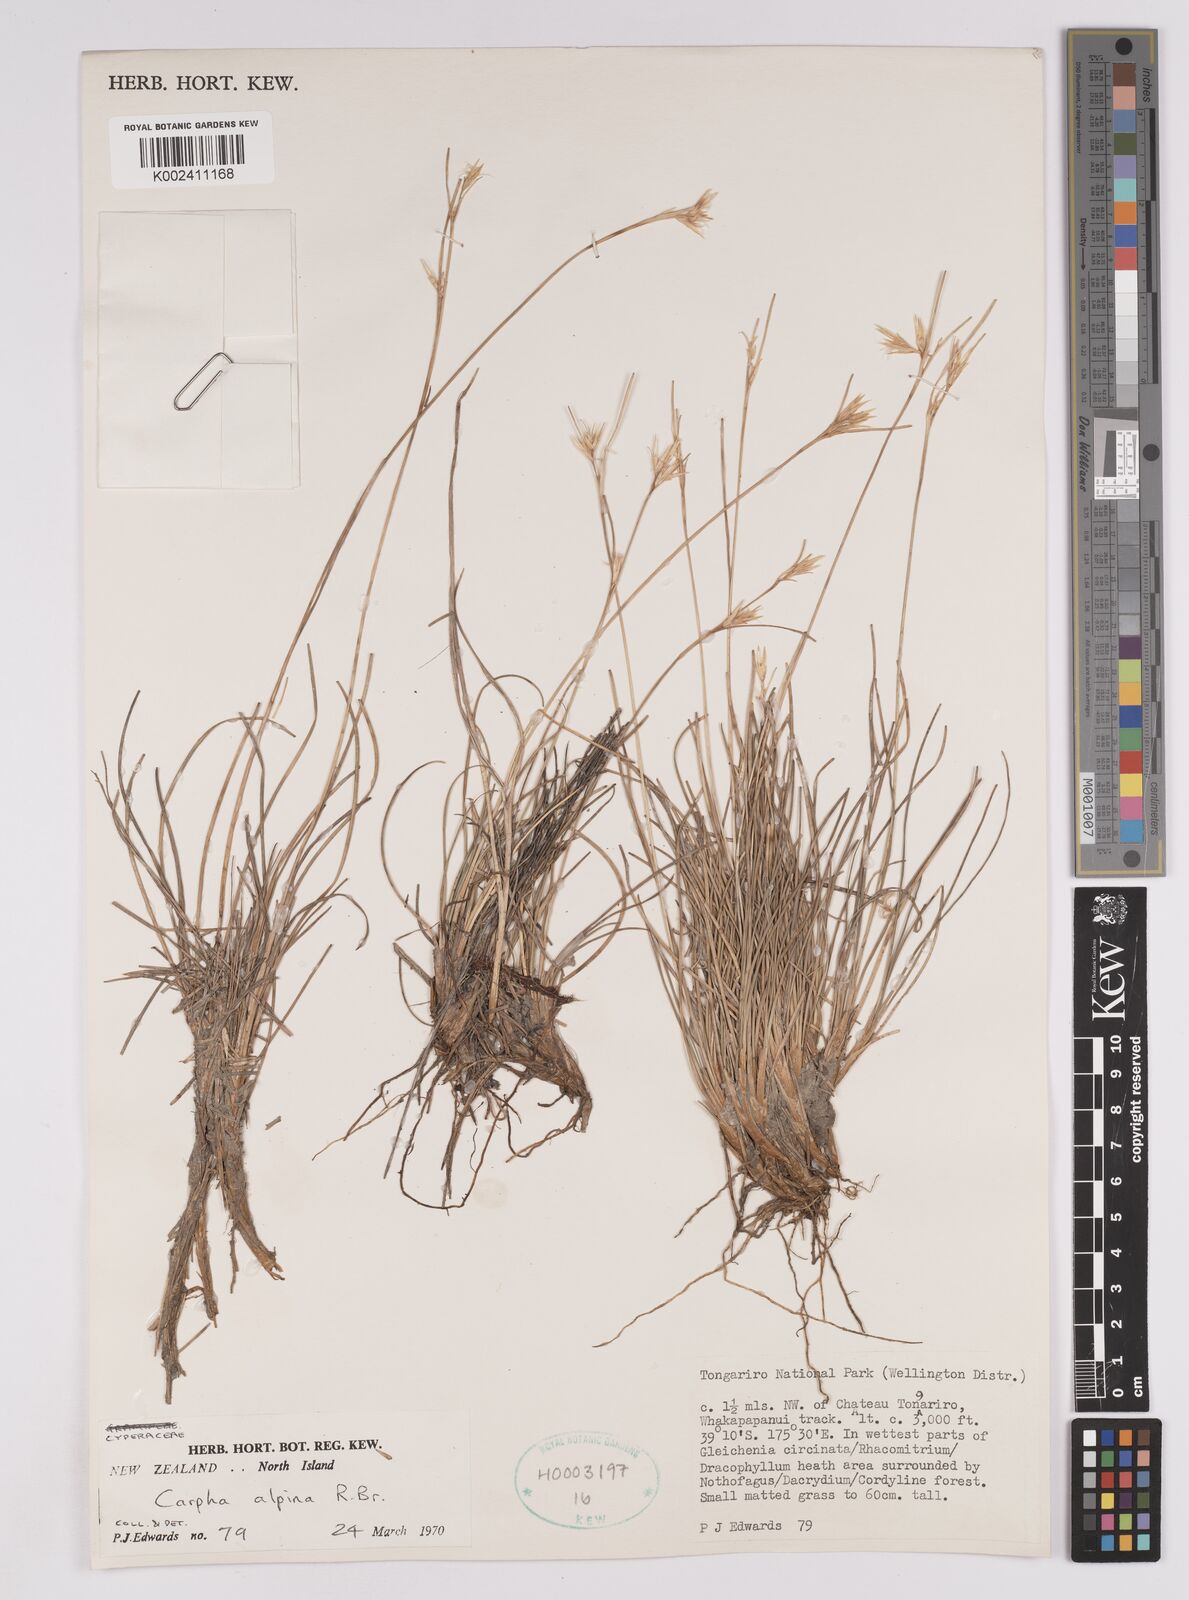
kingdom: Plantae
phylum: Tracheophyta
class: Liliopsida
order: Poales
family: Cyperaceae
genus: Carpha
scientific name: Carpha alpina
